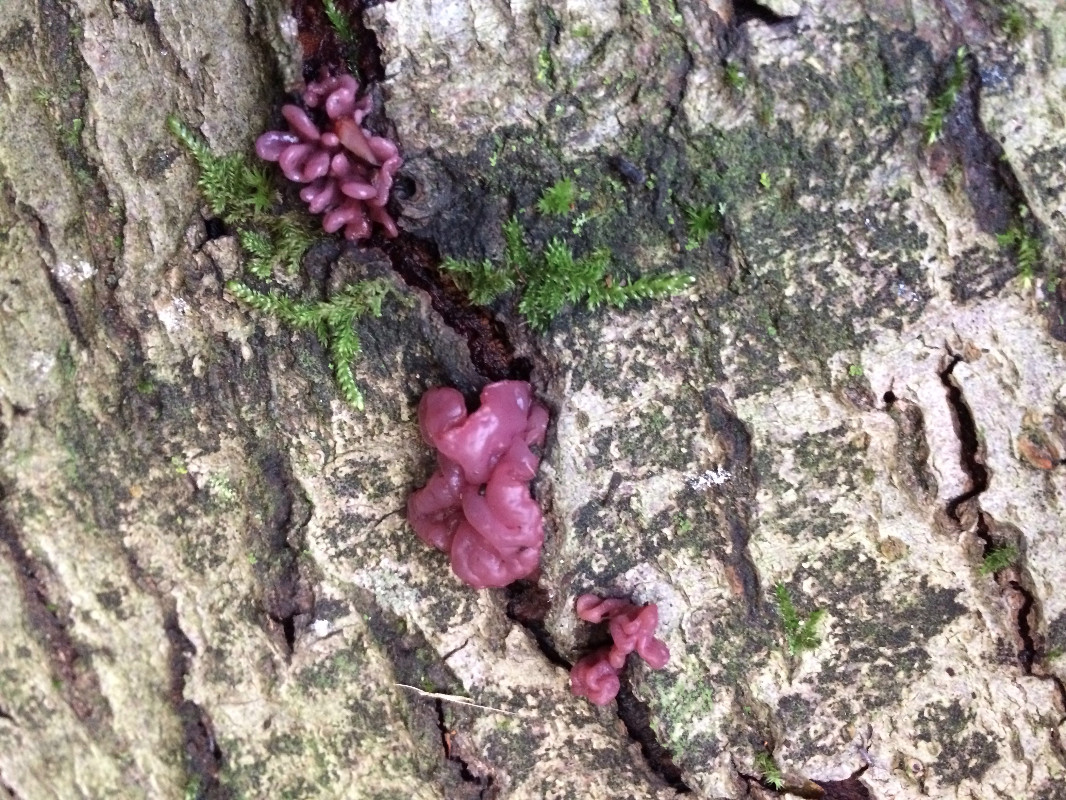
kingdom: Fungi
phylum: Ascomycota
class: Leotiomycetes
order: Helotiales
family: Gelatinodiscaceae
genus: Ascocoryne
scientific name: Ascocoryne sarcoides
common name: rødlilla sejskive
